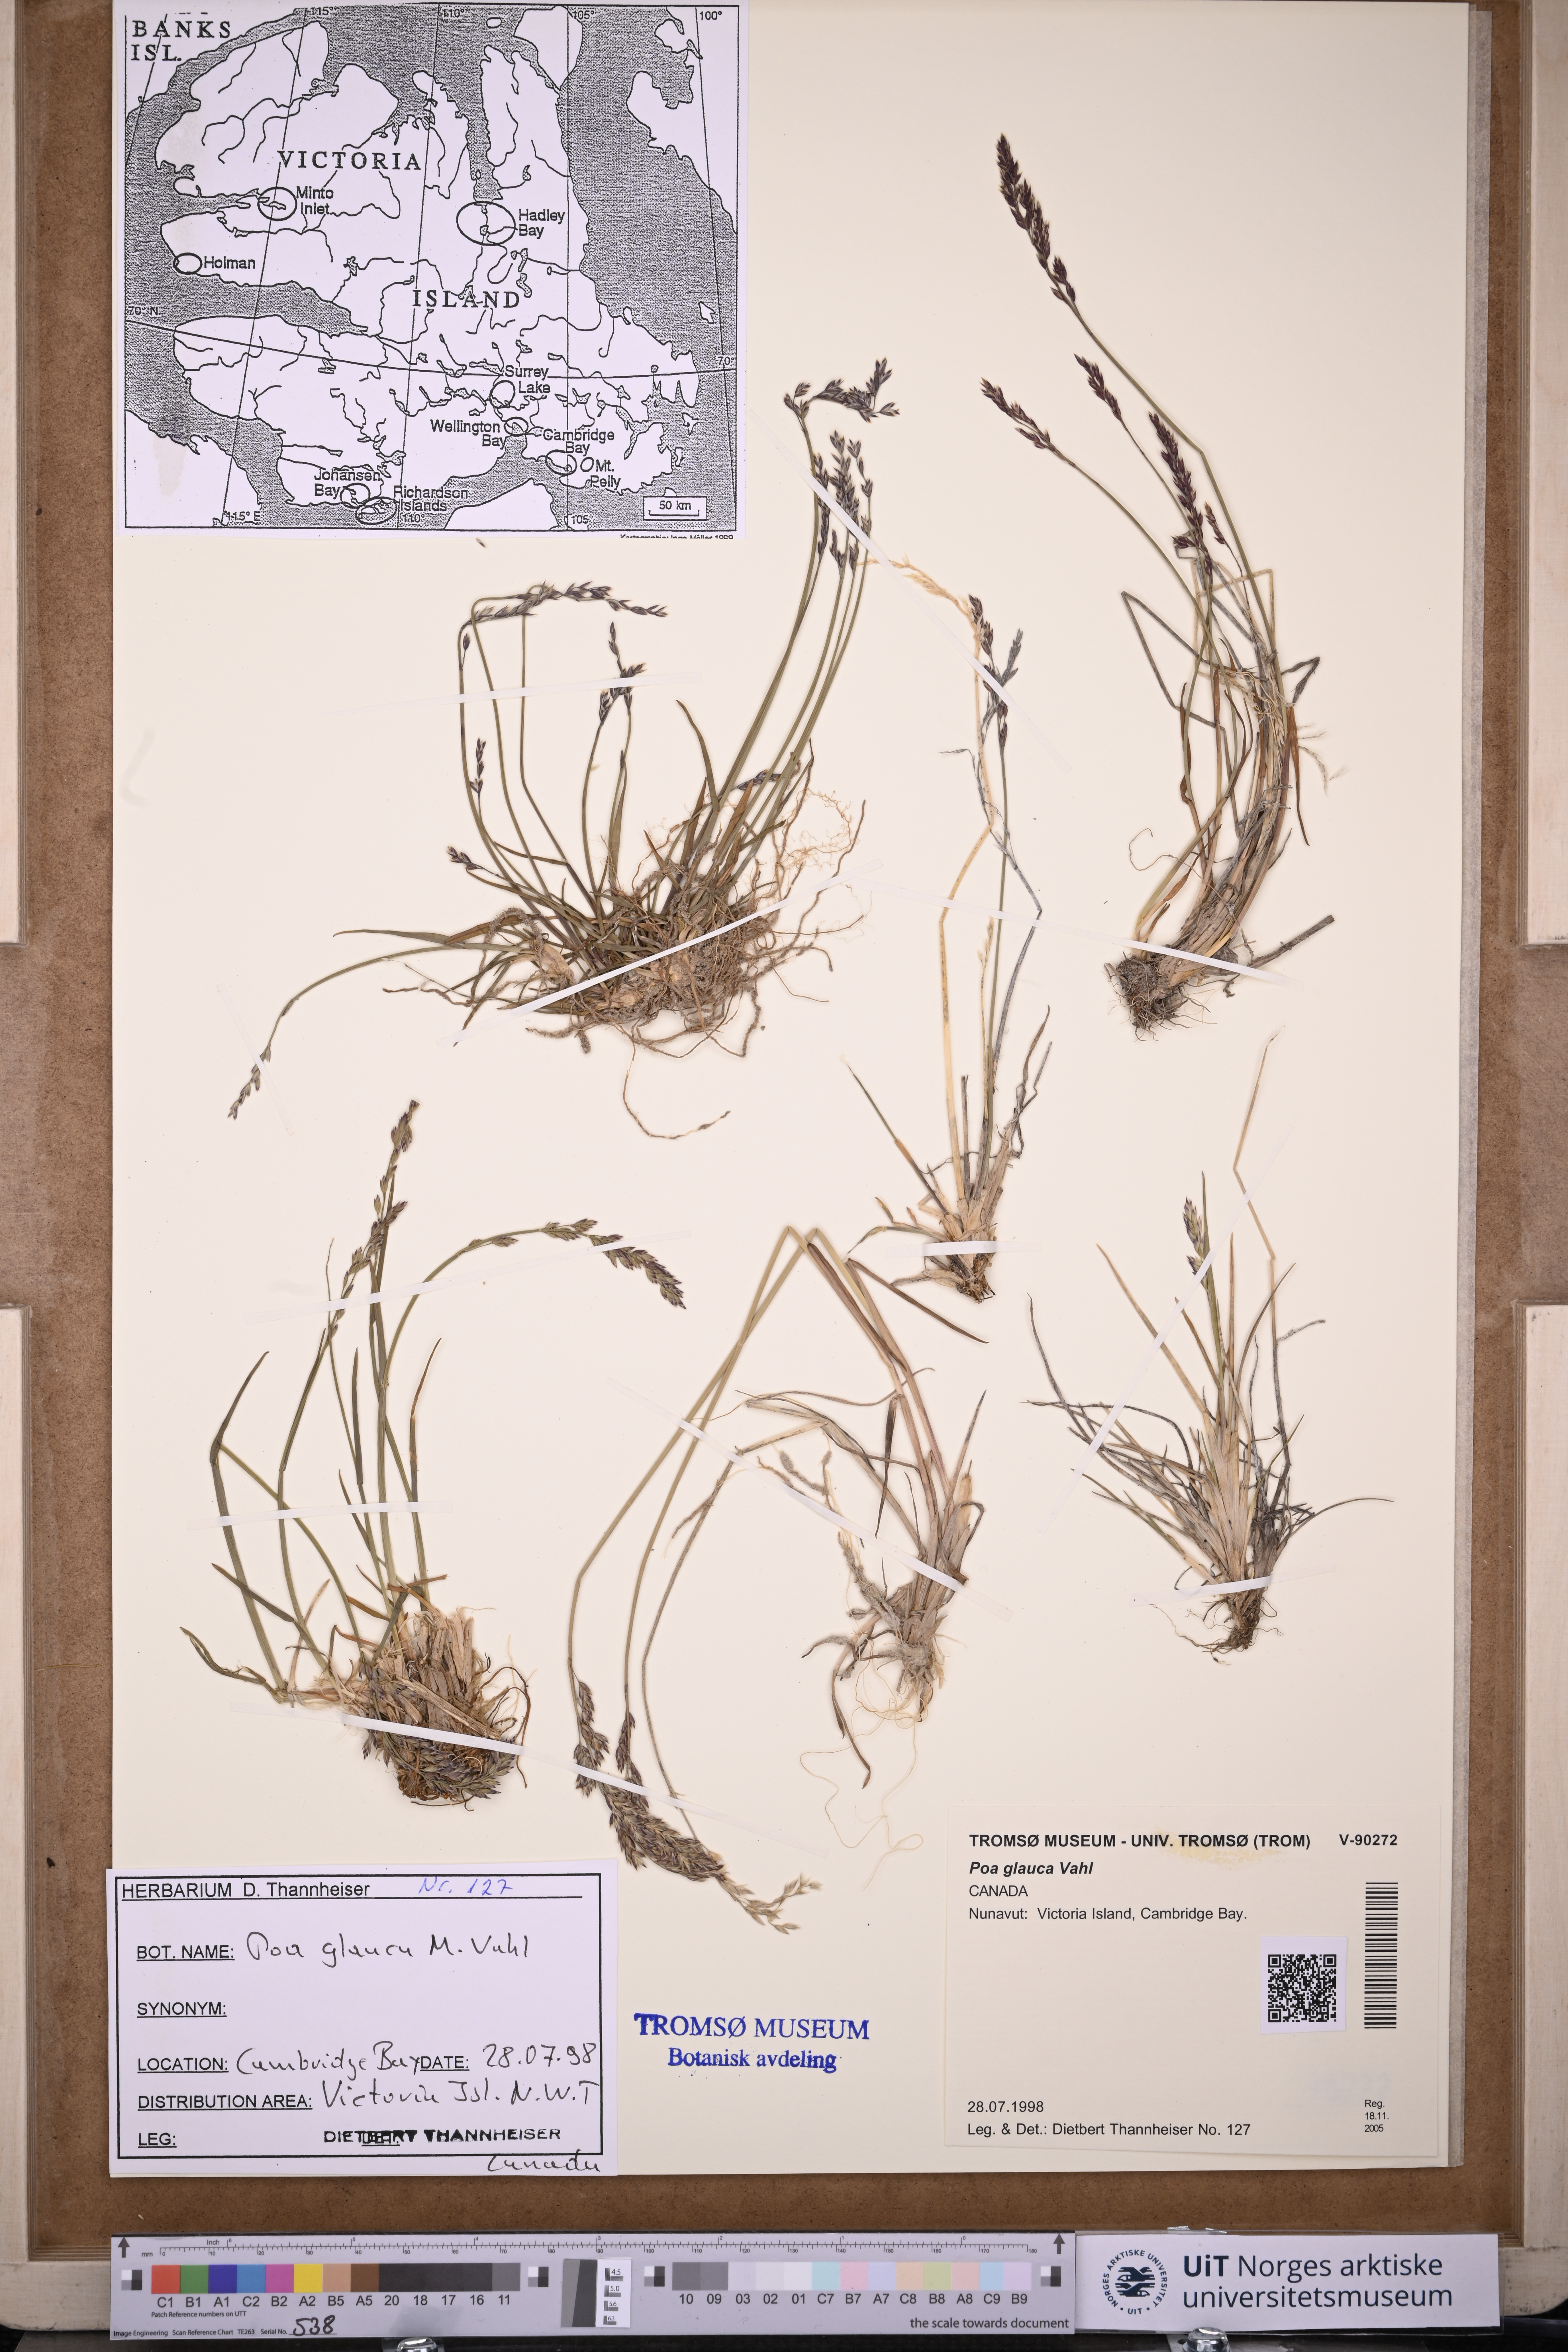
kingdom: Plantae
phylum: Tracheophyta
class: Liliopsida
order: Poales
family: Poaceae
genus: Poa
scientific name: Poa glauca
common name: Glaucous bluegrass
